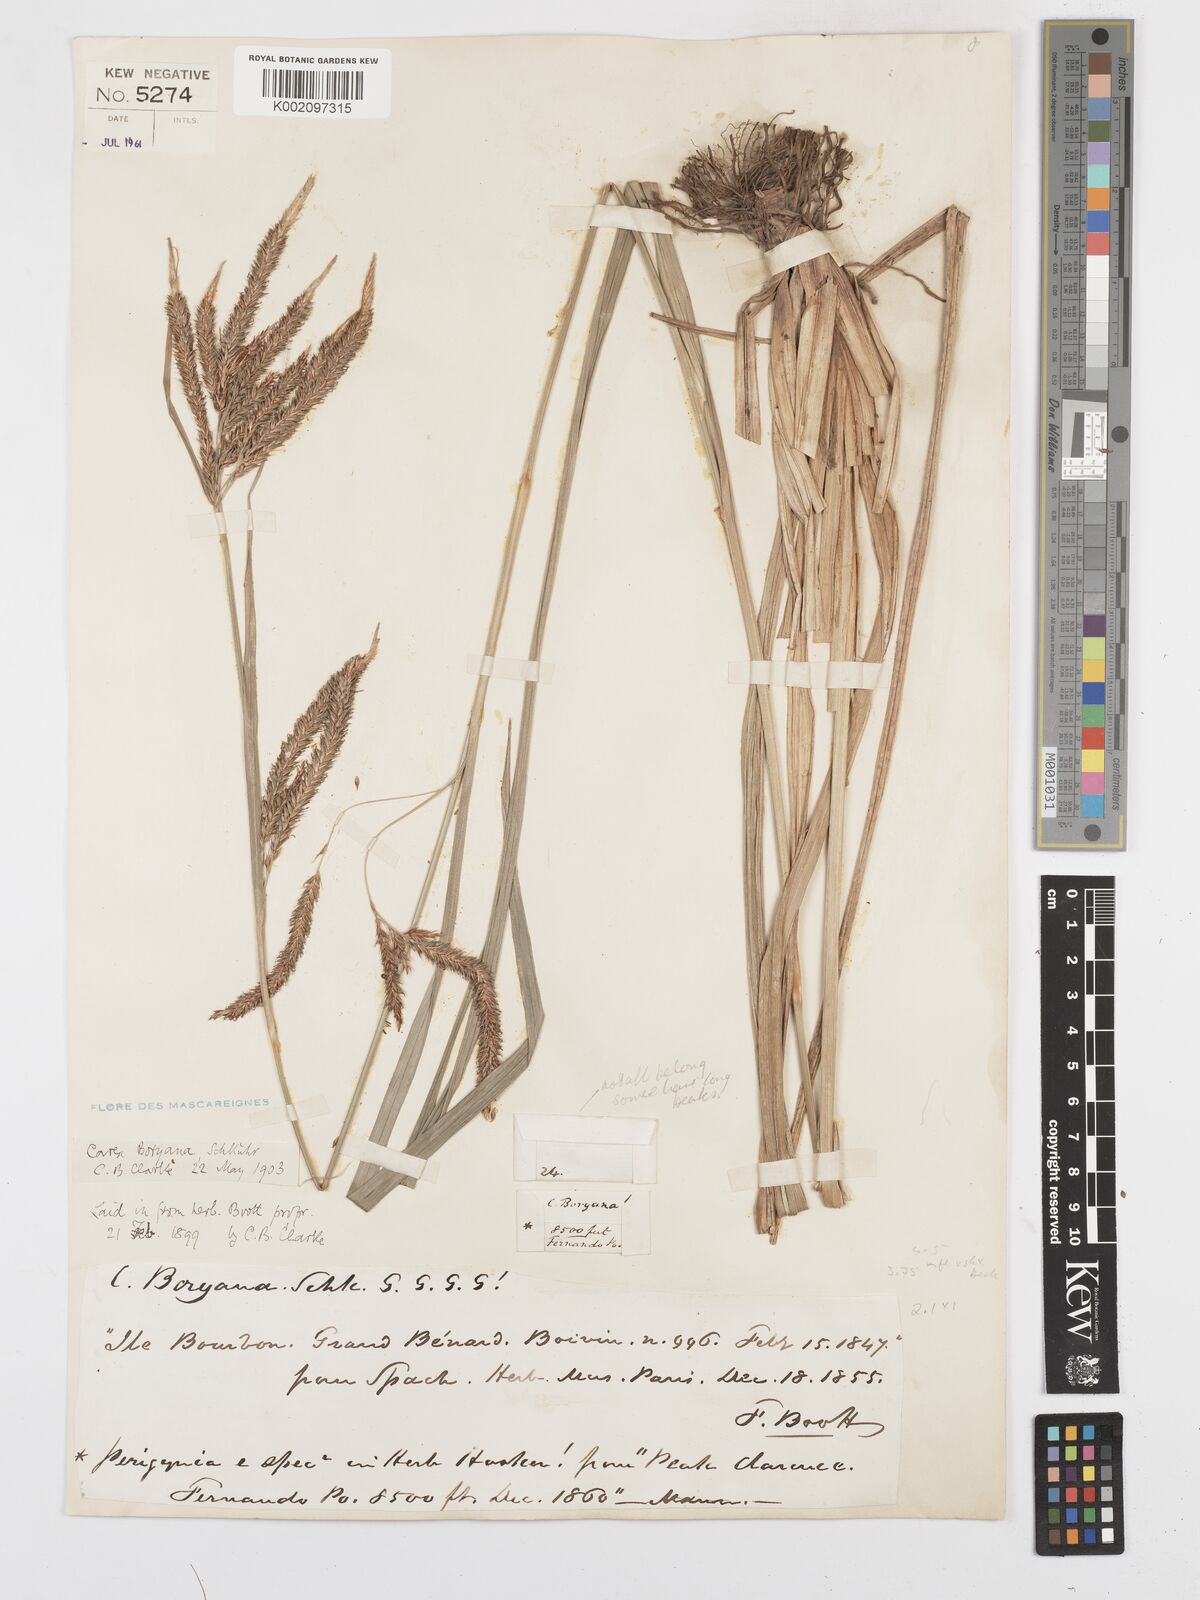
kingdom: Plantae
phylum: Tracheophyta
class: Liliopsida
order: Poales
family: Cyperaceae
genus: Carex
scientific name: Carex boryana
